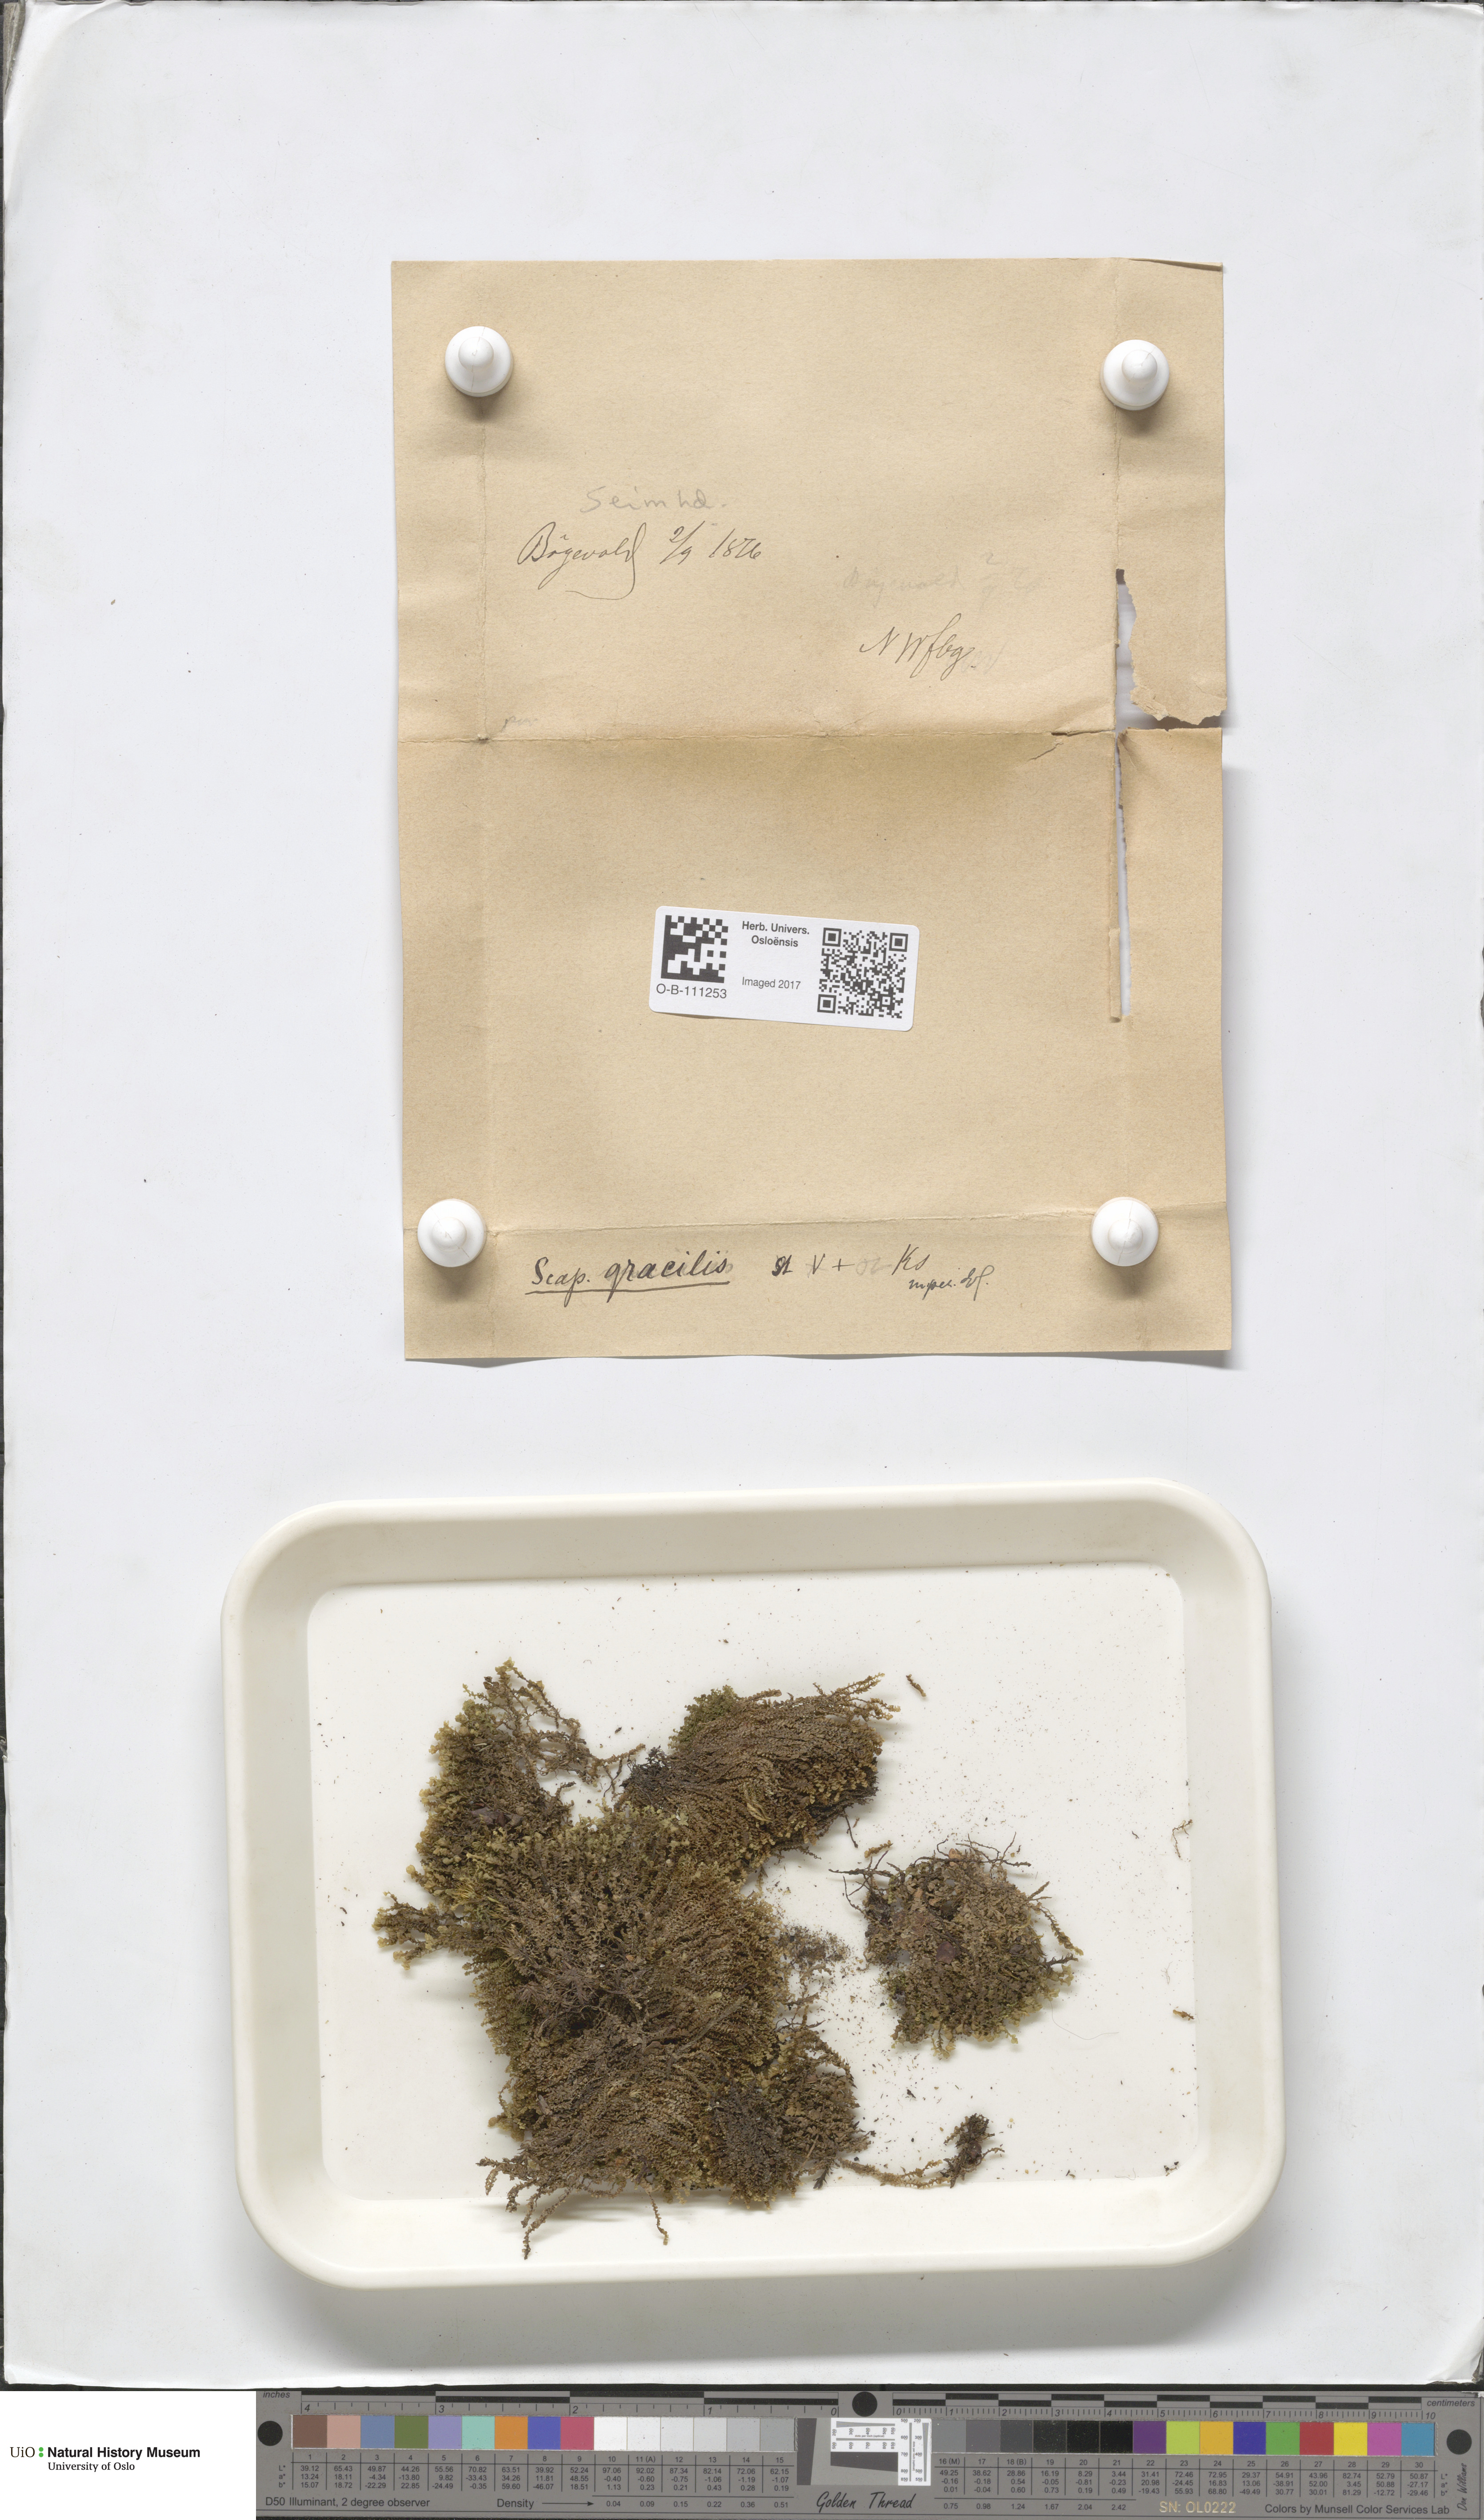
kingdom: Plantae
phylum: Marchantiophyta
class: Jungermanniopsida
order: Jungermanniales
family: Scapaniaceae
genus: Scapania
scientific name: Scapania gracilis
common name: Western earwort
